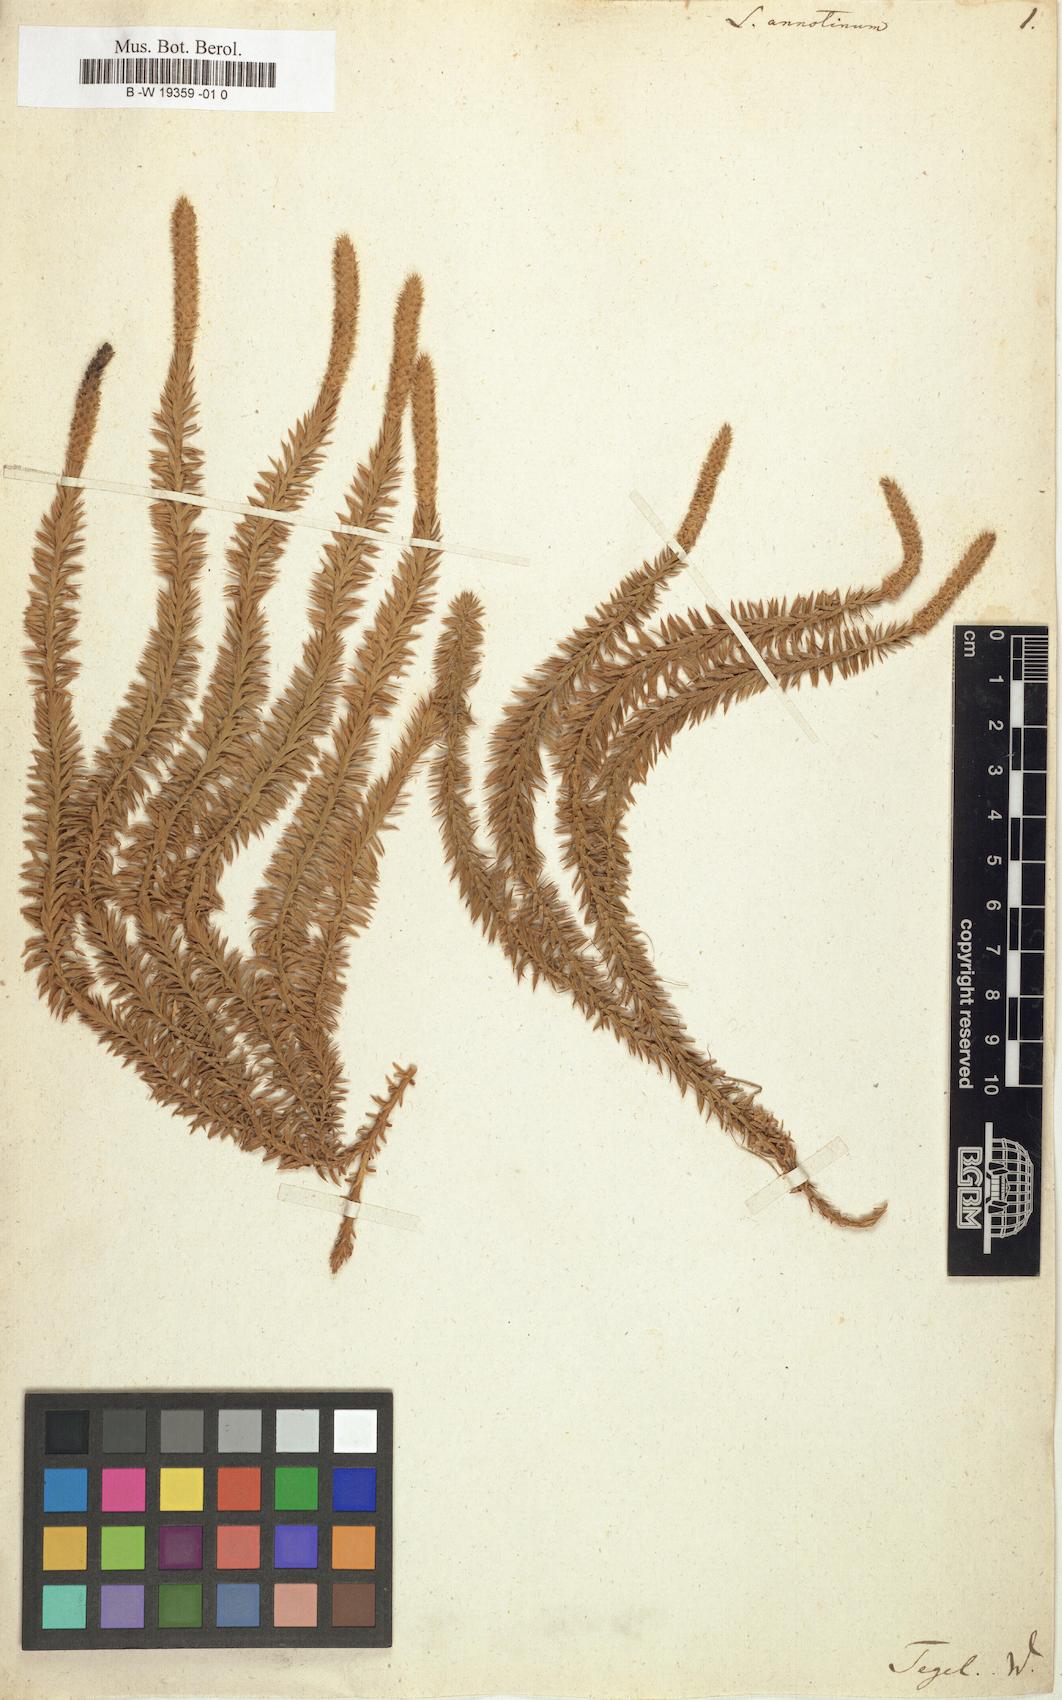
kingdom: Plantae
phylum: Tracheophyta
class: Lycopodiopsida
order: Lycopodiales
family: Lycopodiaceae
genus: Spinulum
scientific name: Spinulum annotinum
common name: Interrupted club-moss
